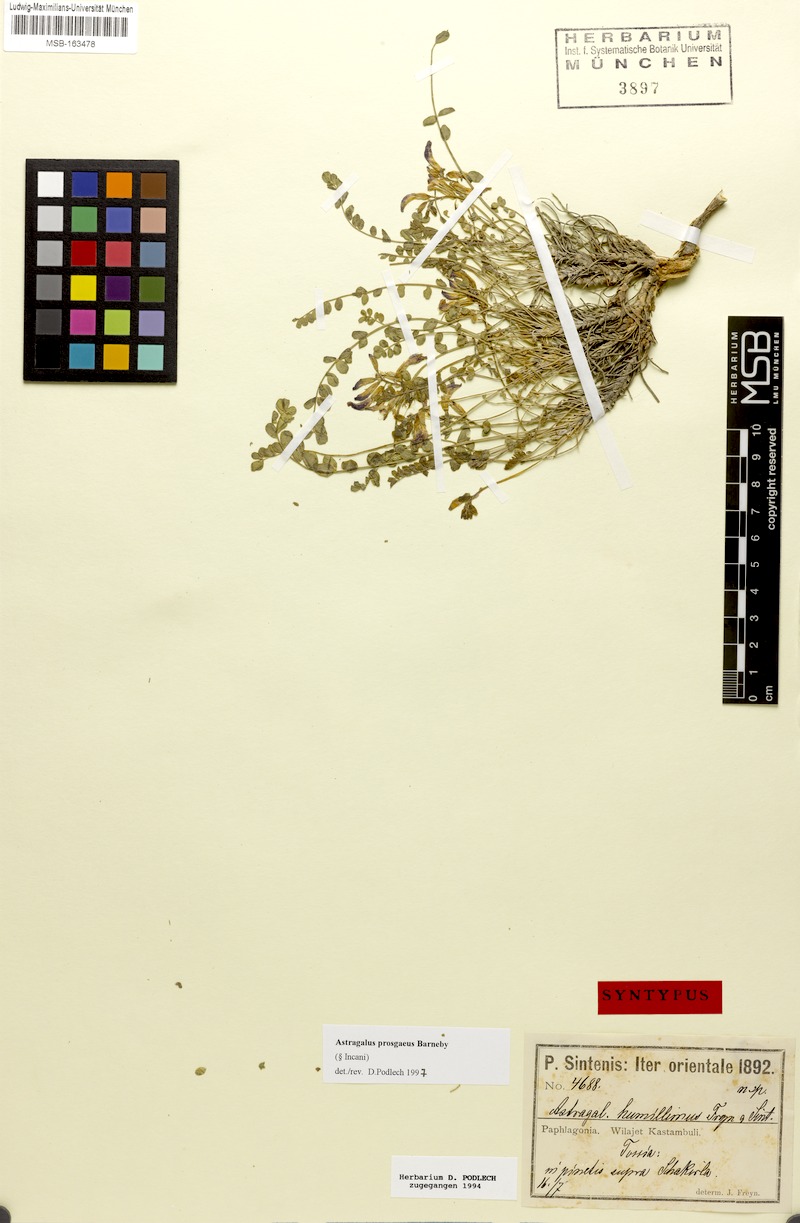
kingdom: Plantae
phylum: Tracheophyta
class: Magnoliopsida
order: Fabales
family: Fabaceae
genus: Astragalus
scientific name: Astragalus prosgaeus
